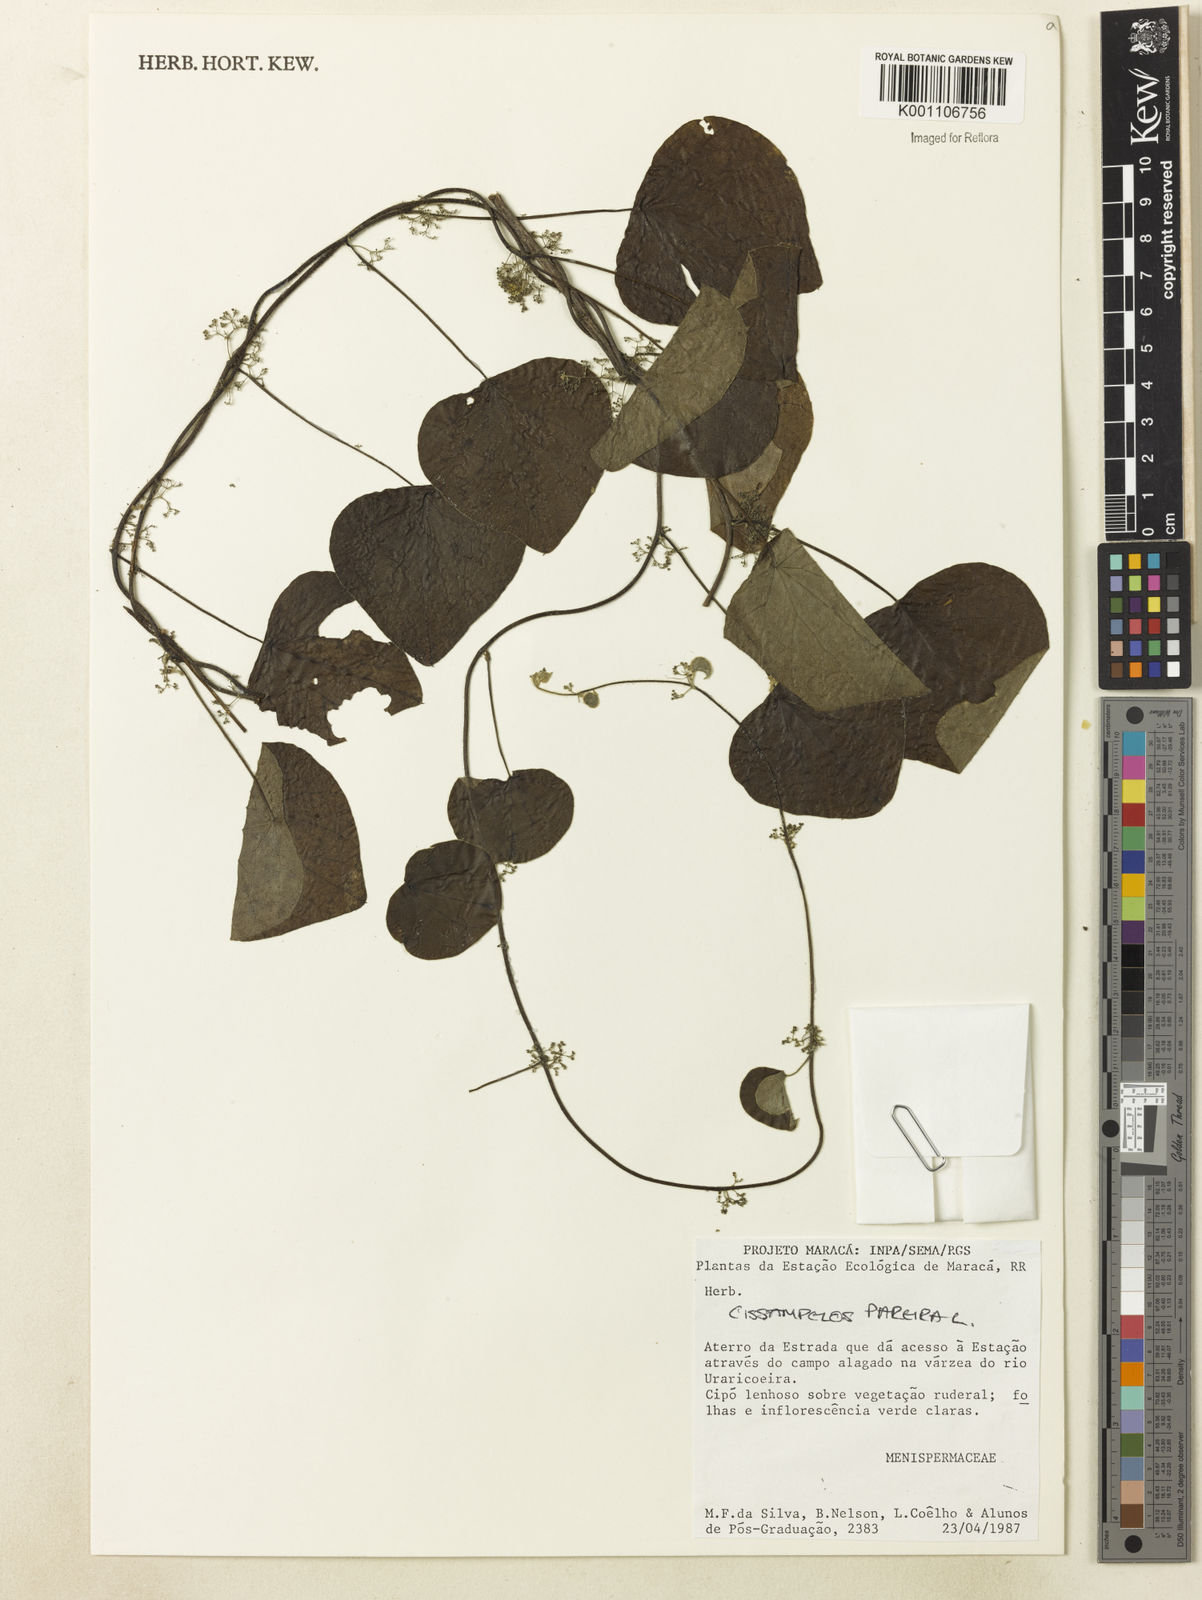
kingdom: Plantae
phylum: Tracheophyta
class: Magnoliopsida
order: Ranunculales
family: Menispermaceae
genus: Cissampelos
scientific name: Cissampelos pareira
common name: Velvetleaf
